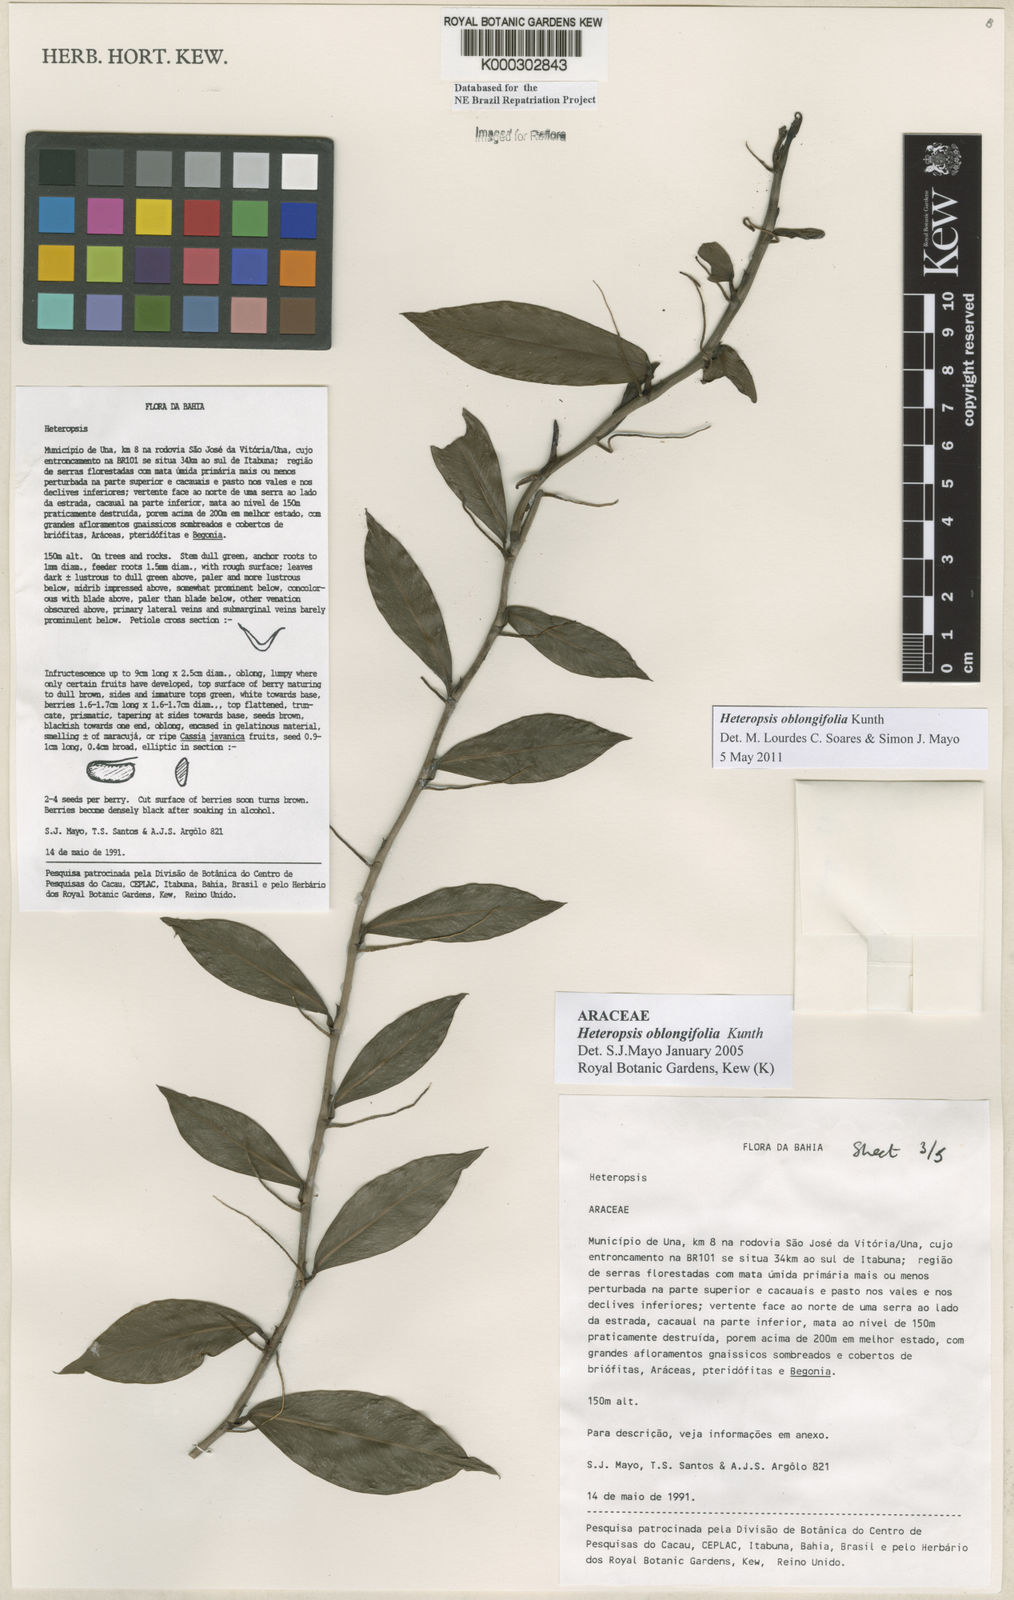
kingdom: Plantae
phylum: Tracheophyta
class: Liliopsida
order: Alismatales
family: Araceae
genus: Heteropsis
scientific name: Heteropsis oblongifolia
